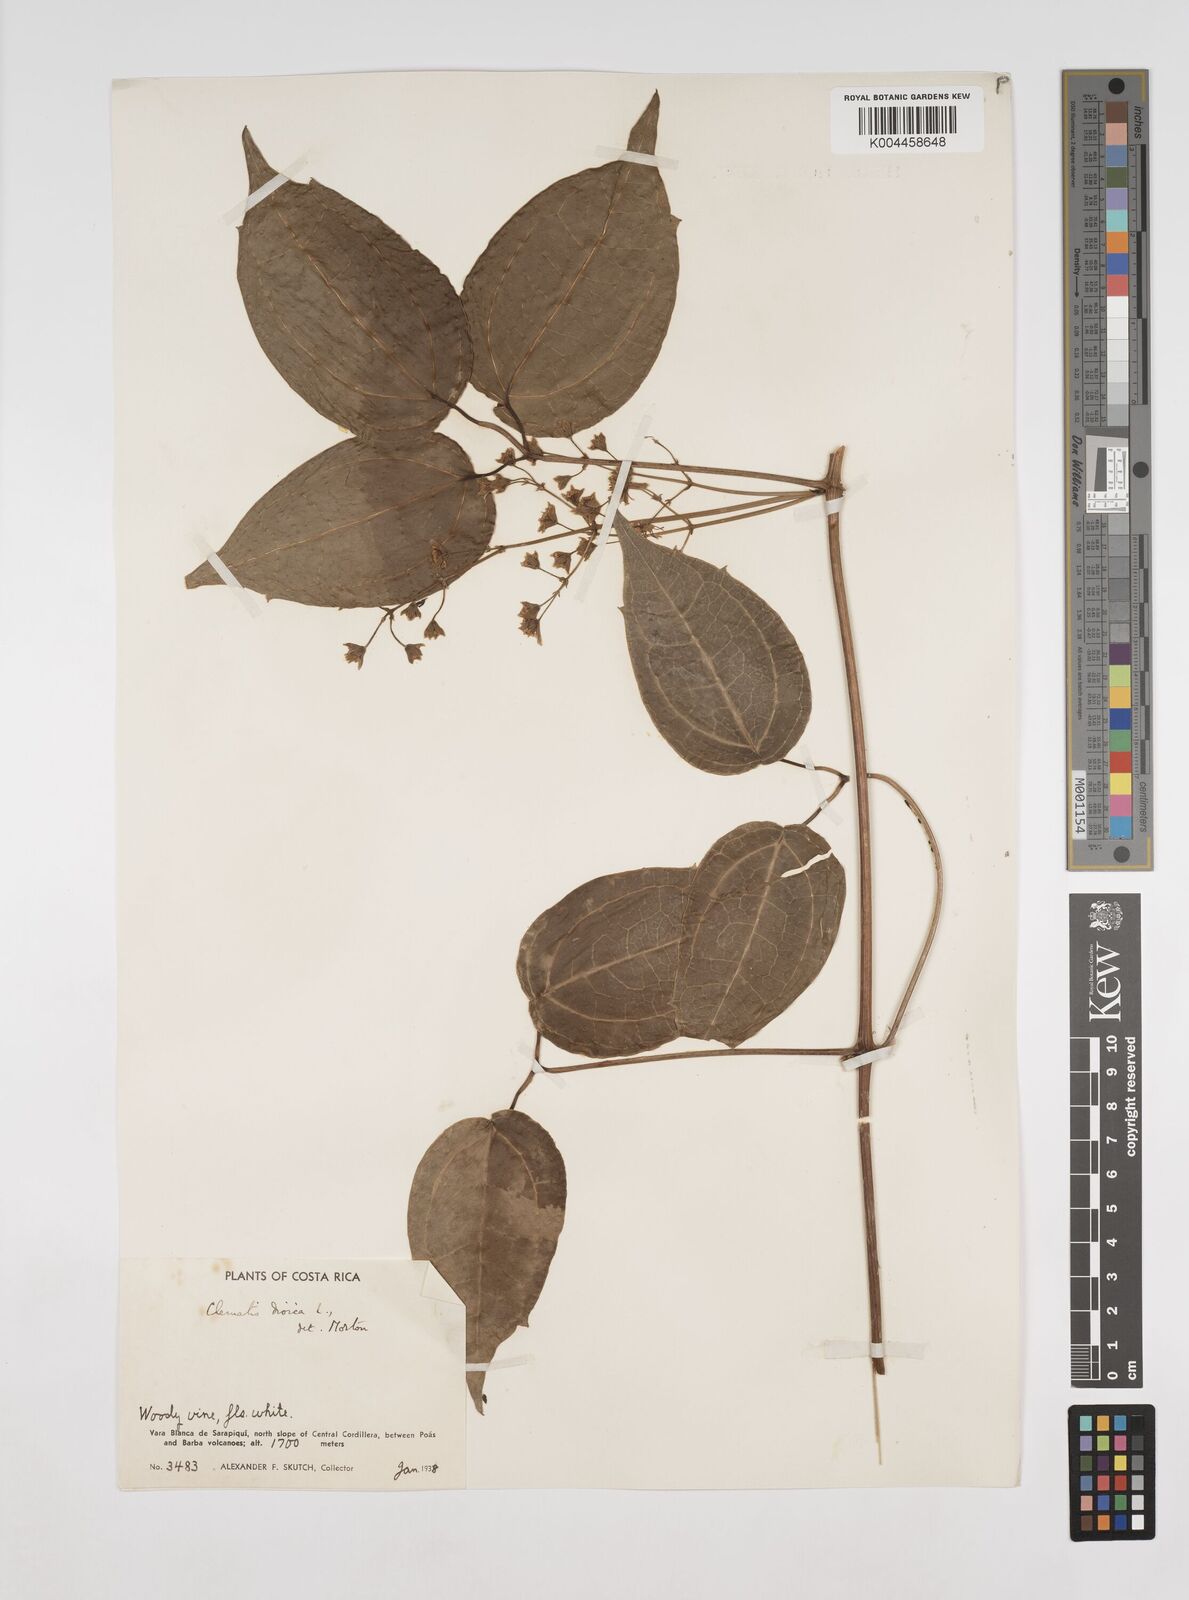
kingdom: Plantae
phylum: Tracheophyta
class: Magnoliopsida
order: Ranunculales
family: Ranunculaceae
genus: Clematis
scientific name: Clematis dioica
